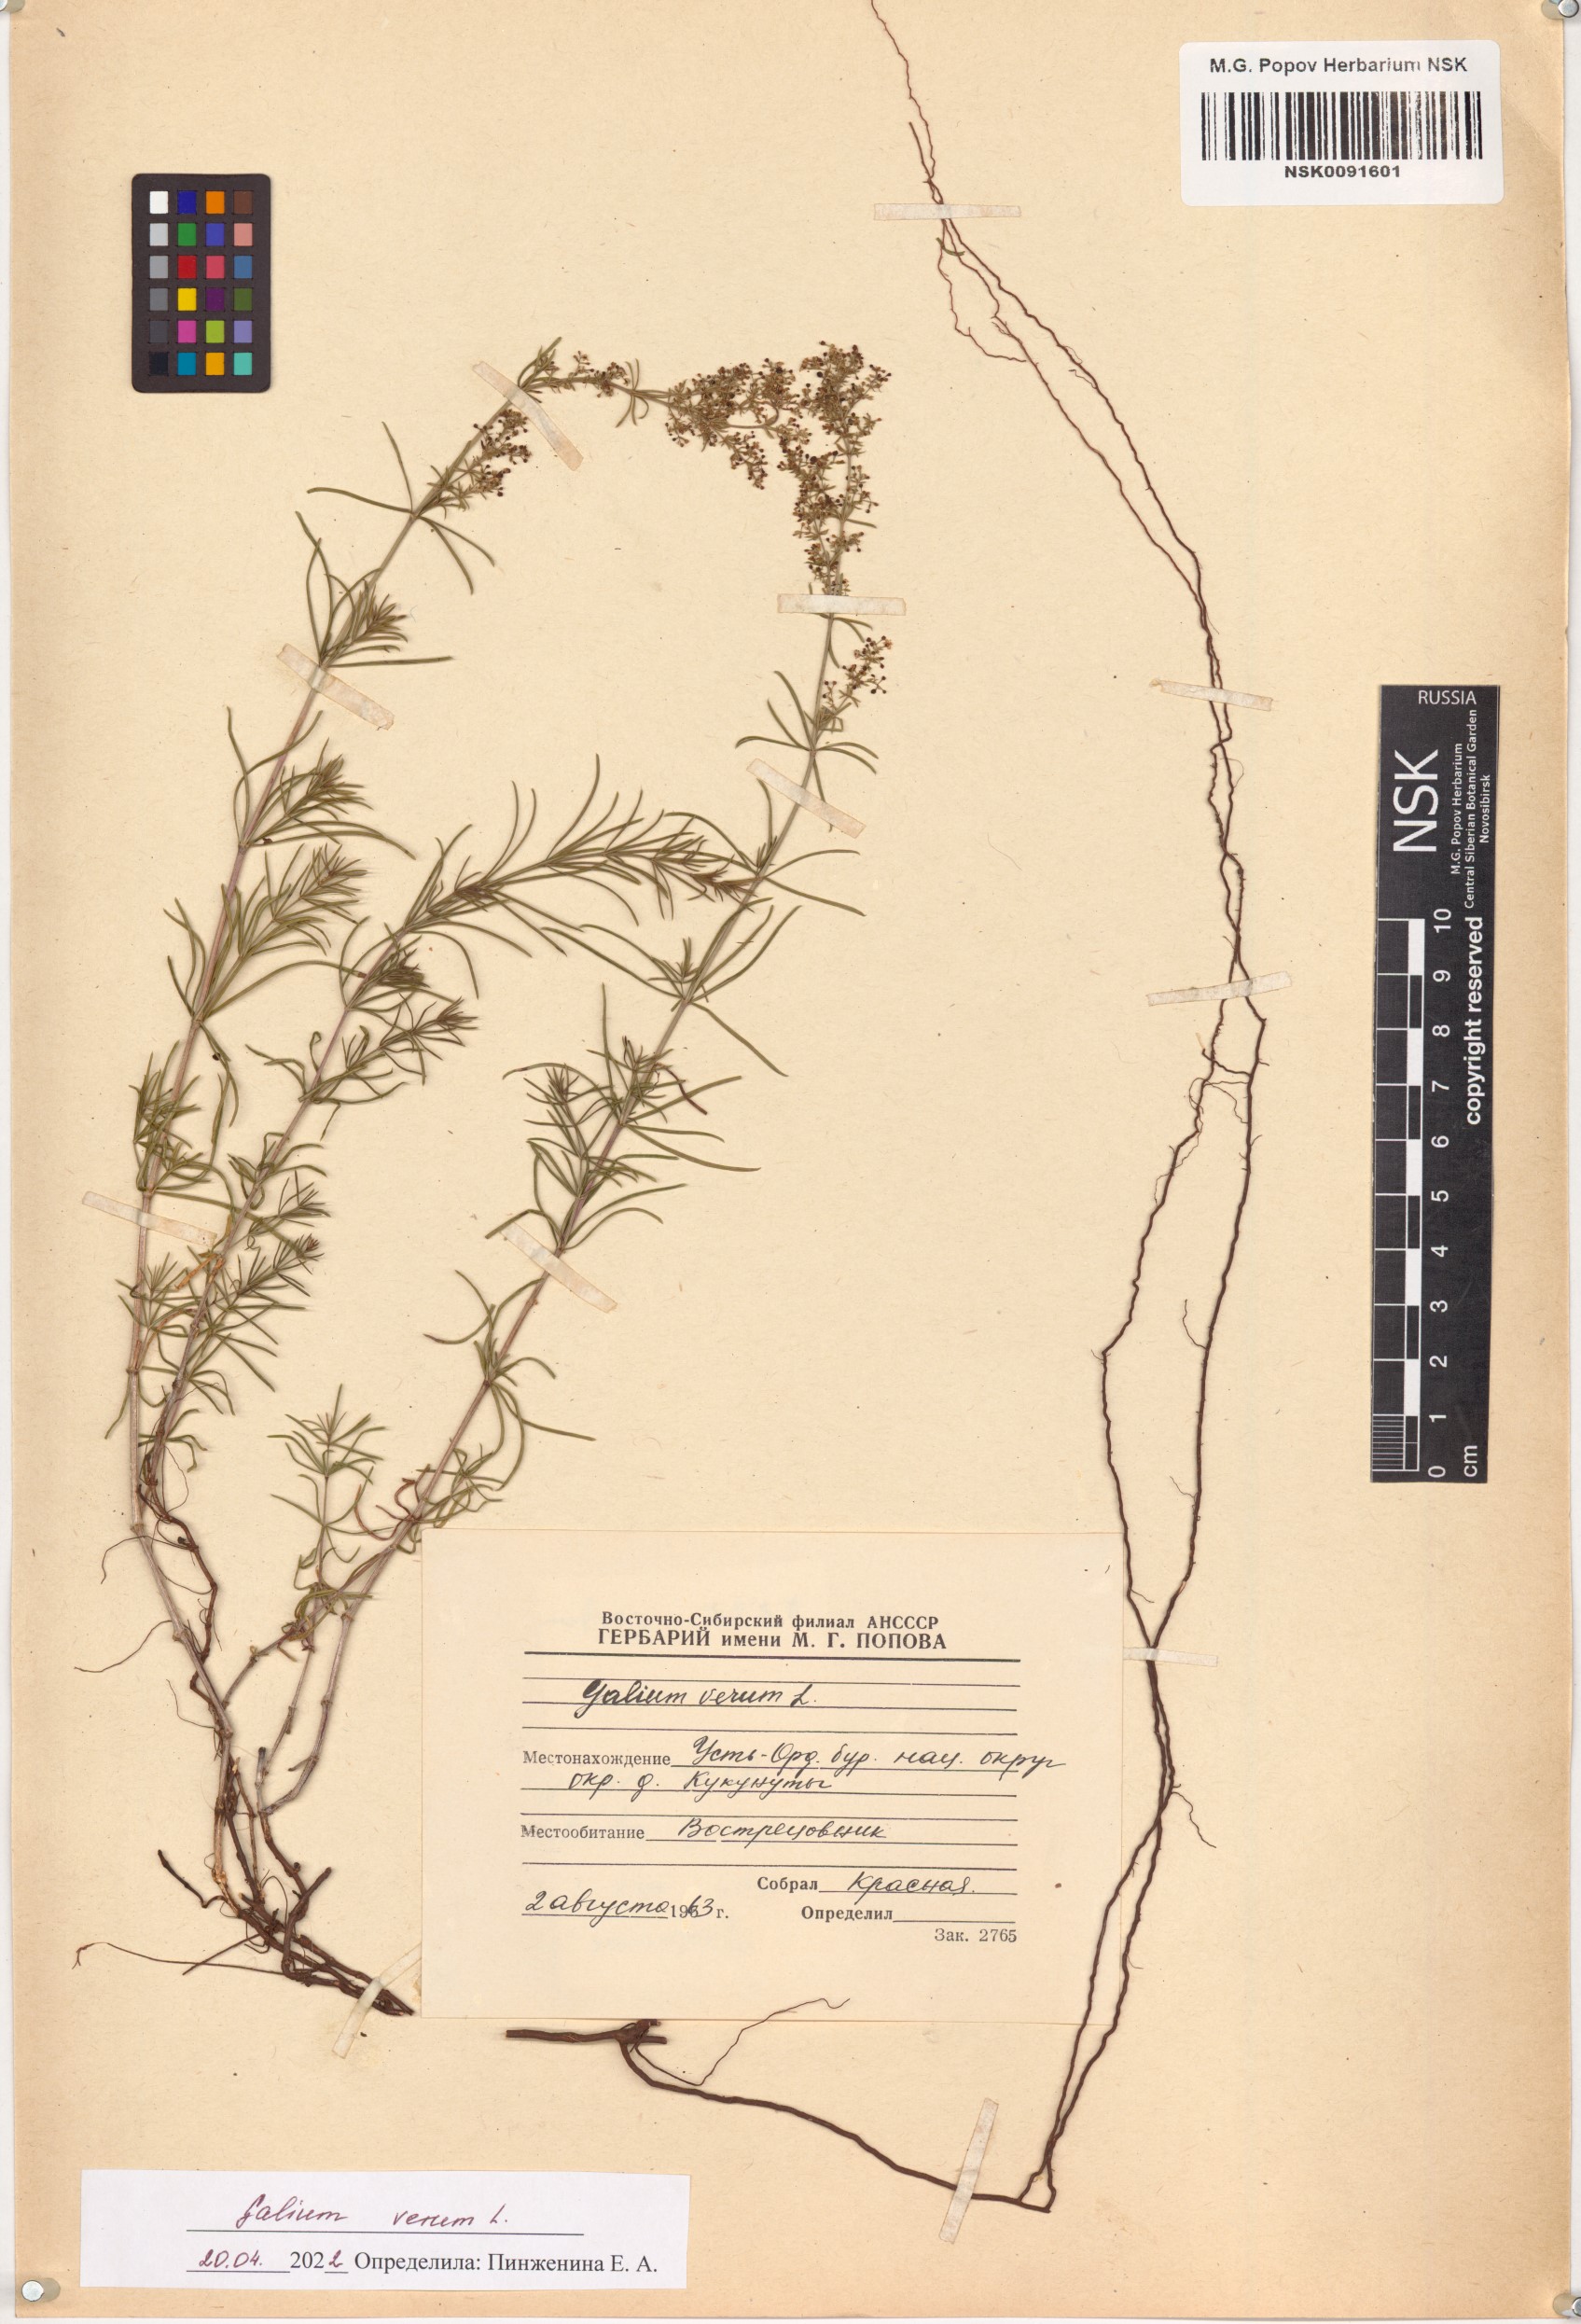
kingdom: Plantae
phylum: Tracheophyta
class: Magnoliopsida
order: Gentianales
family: Rubiaceae
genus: Galium
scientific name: Galium verum
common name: Lady's bedstraw
